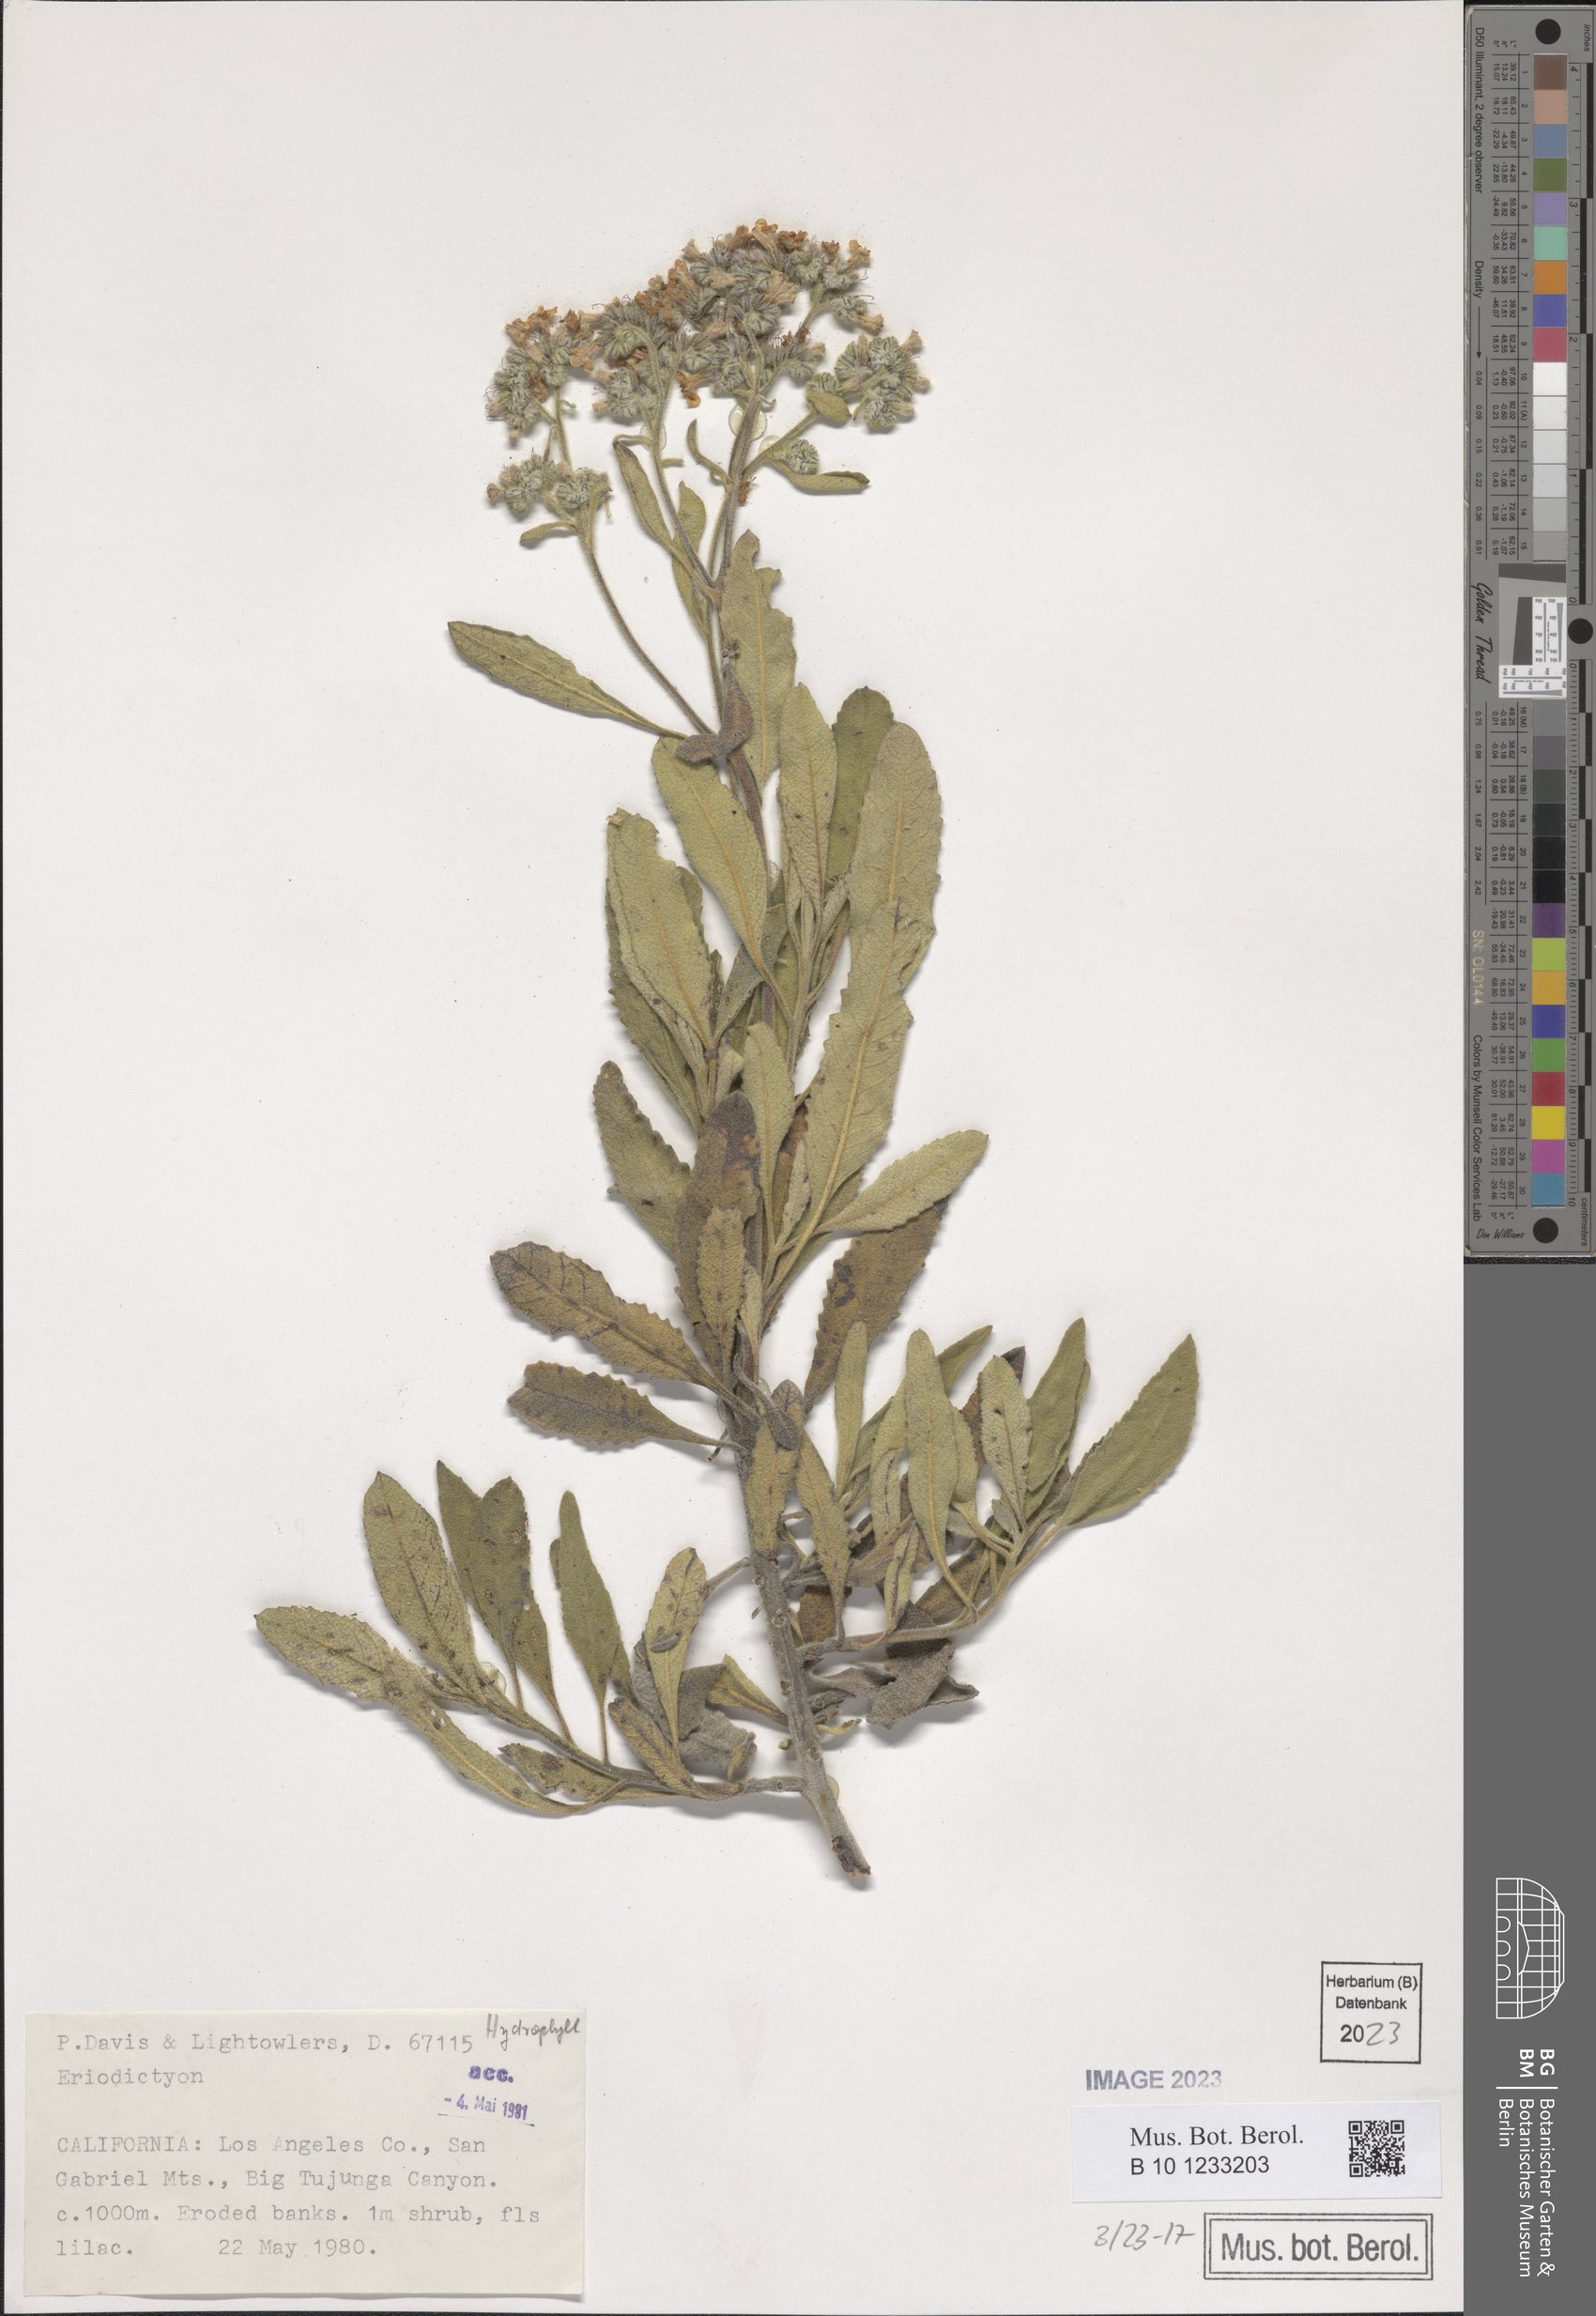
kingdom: Plantae
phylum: Tracheophyta
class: Magnoliopsida
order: Boraginales
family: Namaceae
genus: Eriodictyon
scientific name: Eriodictyon crassifolium
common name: Thick-leaf yerba-santa
